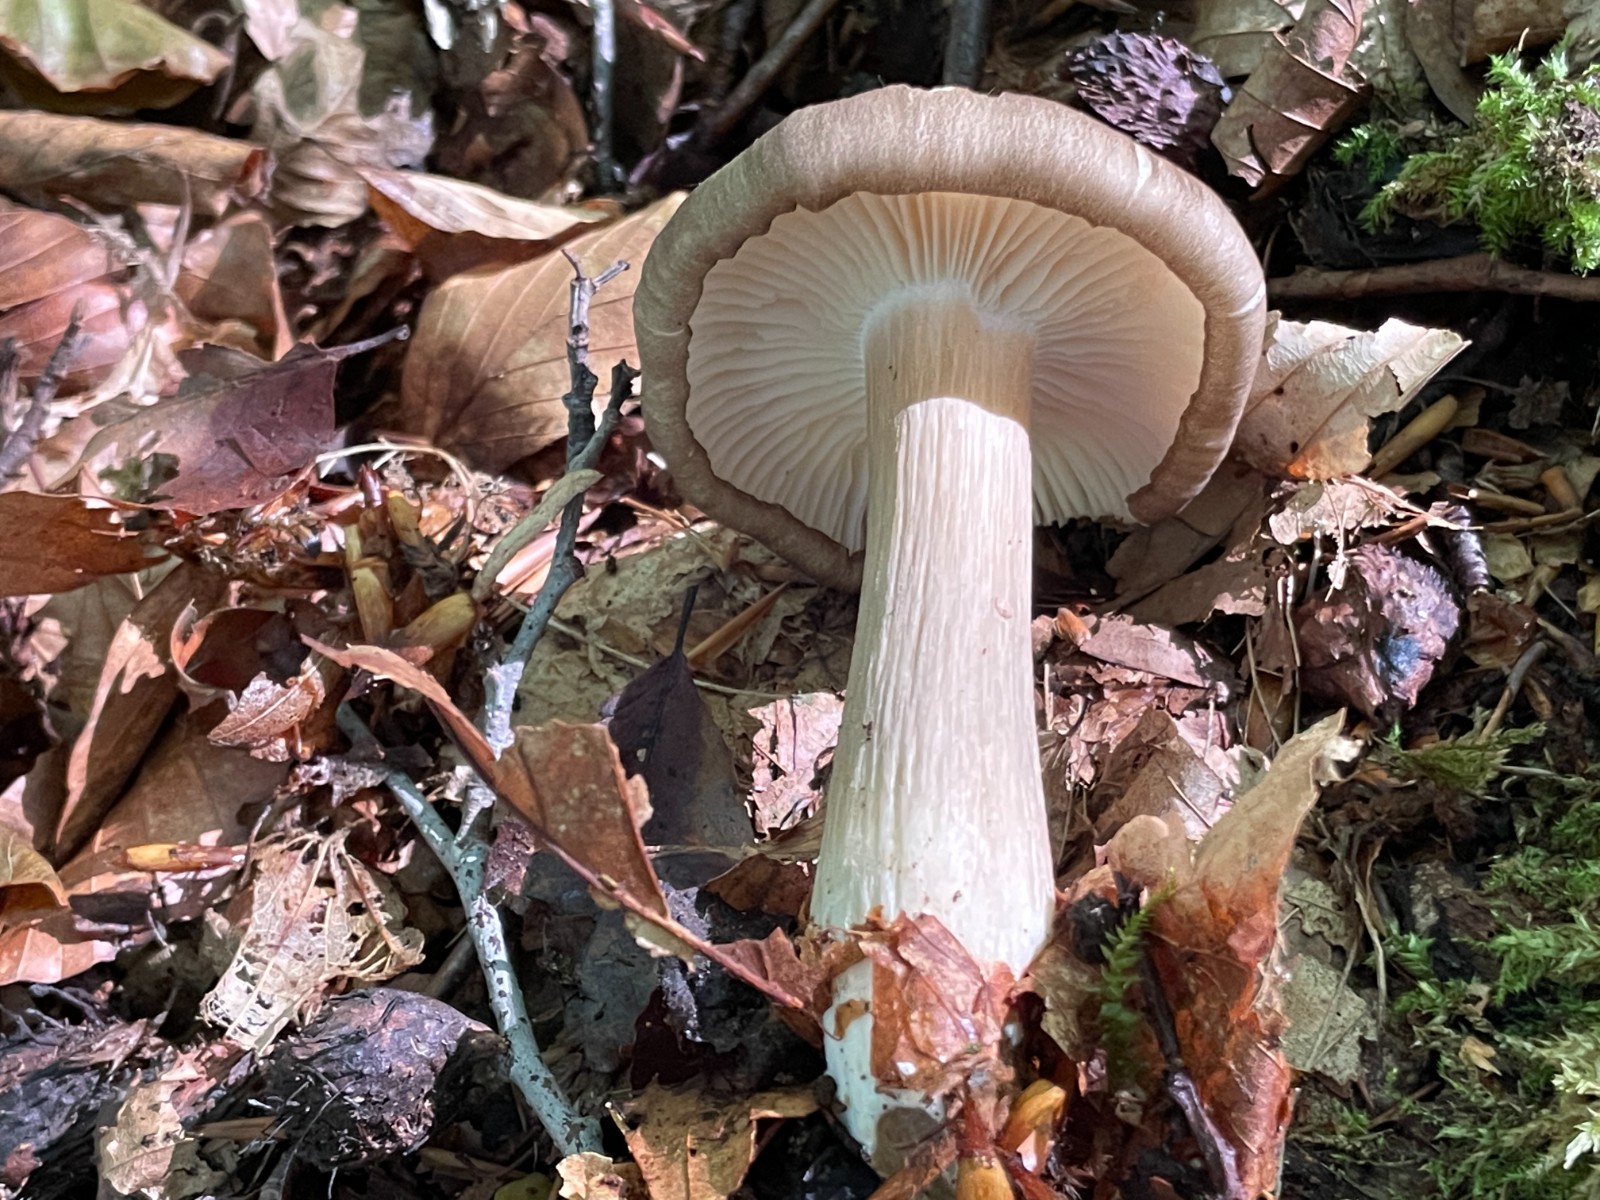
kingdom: Fungi
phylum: Basidiomycota
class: Agaricomycetes
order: Agaricales
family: Tricholomataceae
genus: Megacollybia
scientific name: Megacollybia platyphylla
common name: bredbladet væbnerhat
